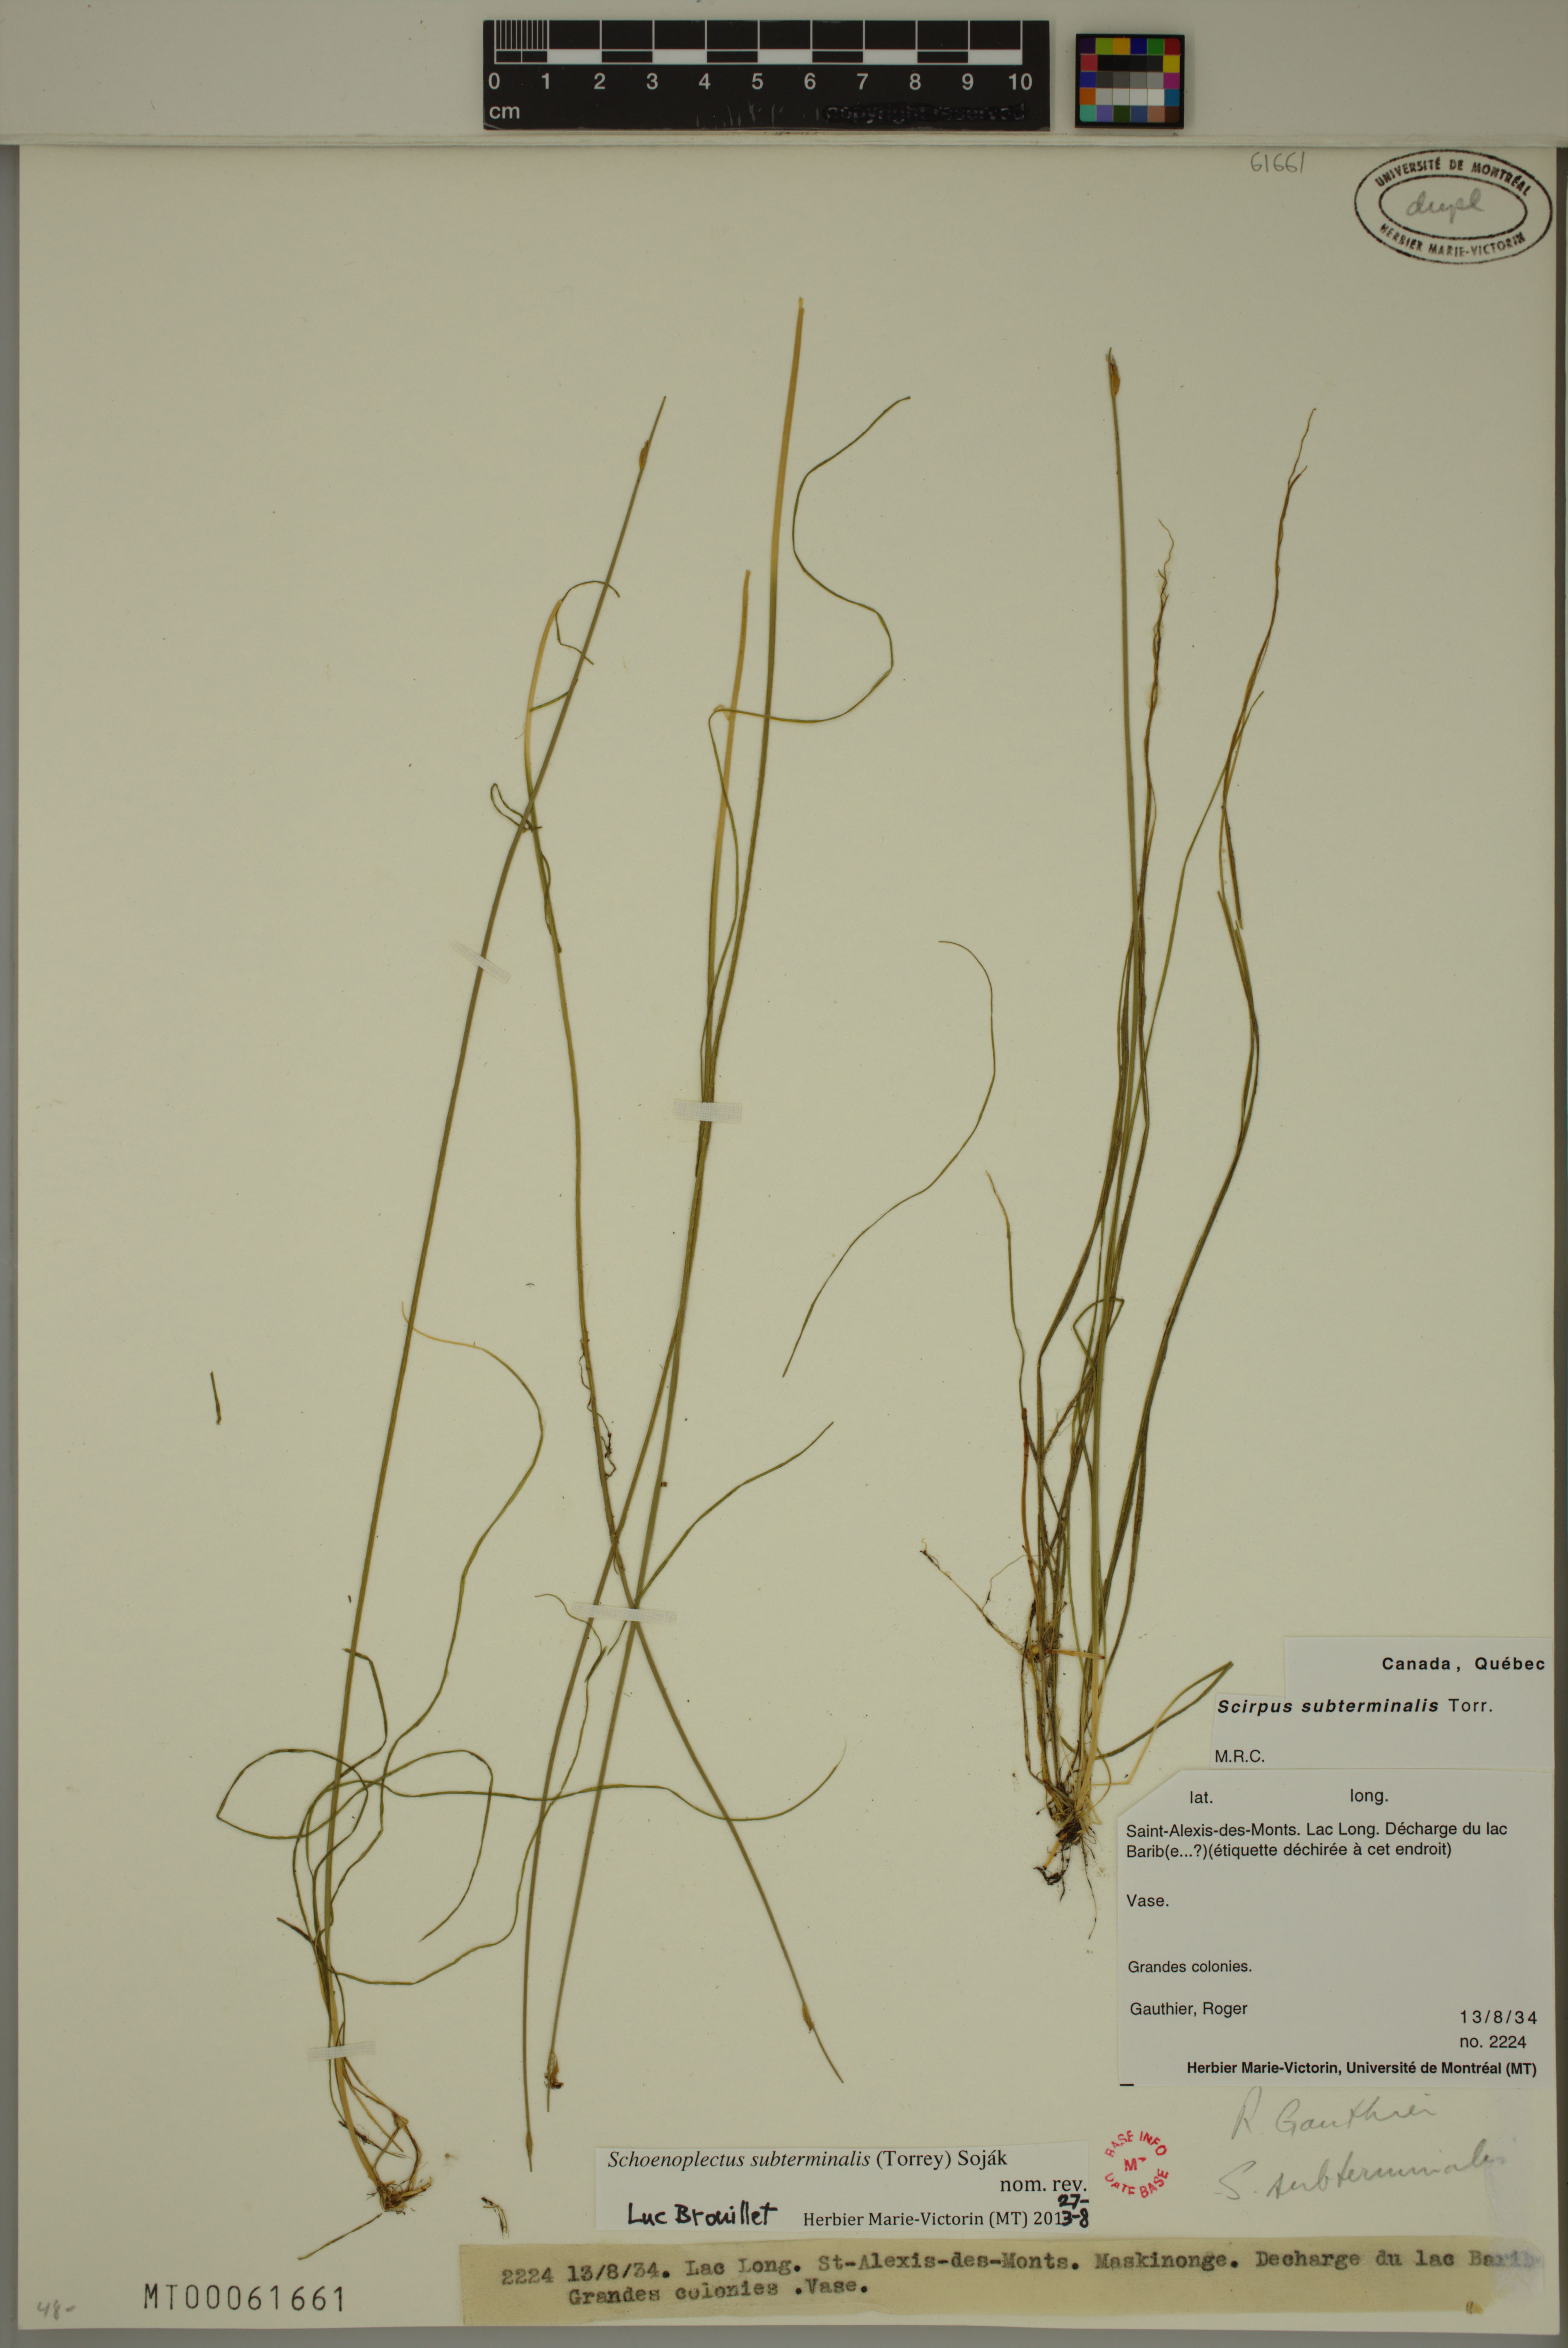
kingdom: Plantae
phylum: Tracheophyta
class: Liliopsida
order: Poales
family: Cyperaceae
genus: Schoenoplectus
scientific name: Schoenoplectus subterminalis
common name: Swaying bulrush
